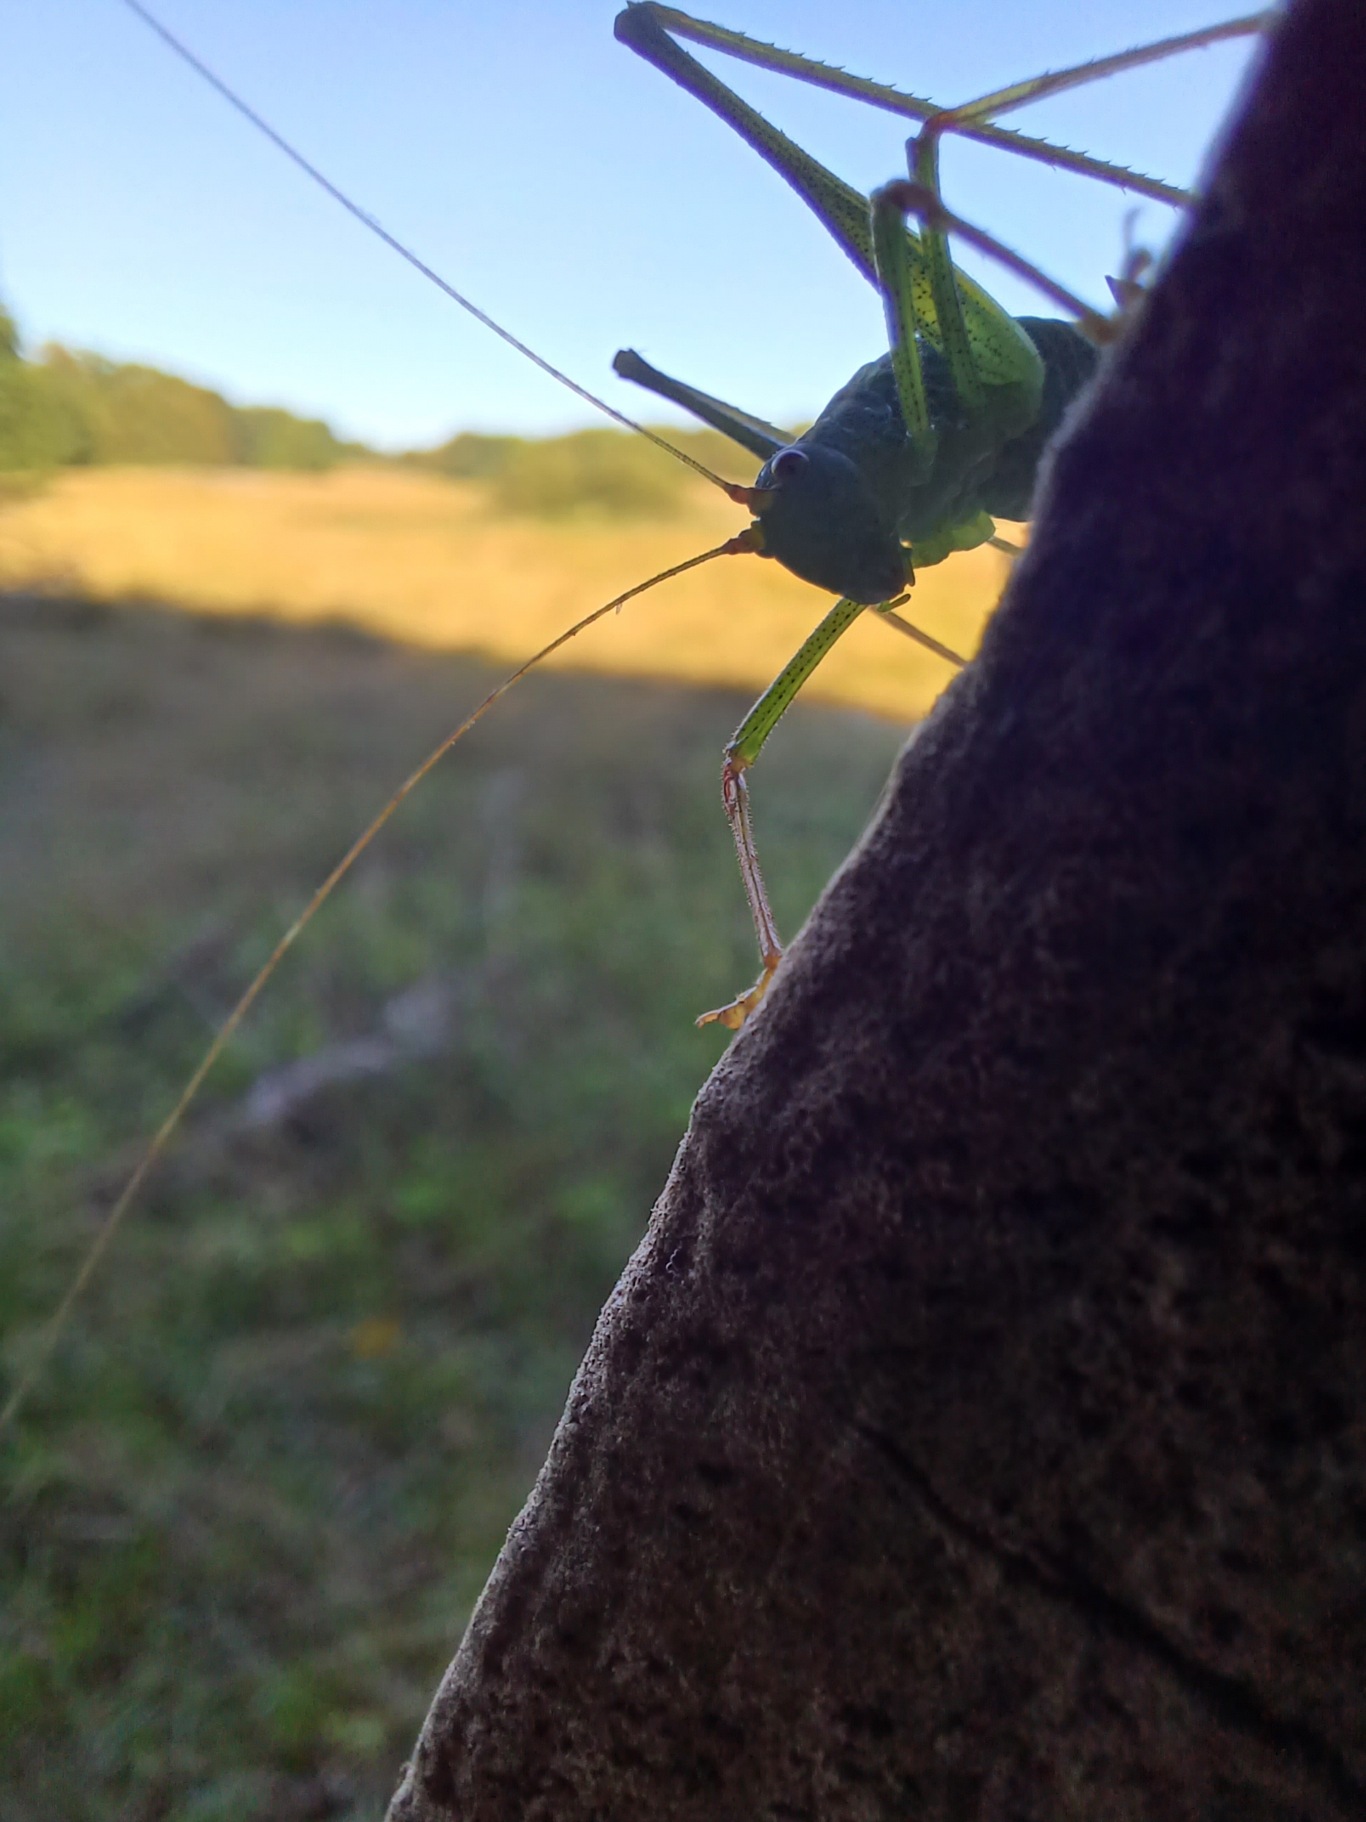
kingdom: Animalia
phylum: Arthropoda
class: Insecta
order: Orthoptera
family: Tettigoniidae
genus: Leptophyes
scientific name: Leptophyes punctatissima
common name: Krumknivgræshoppe
